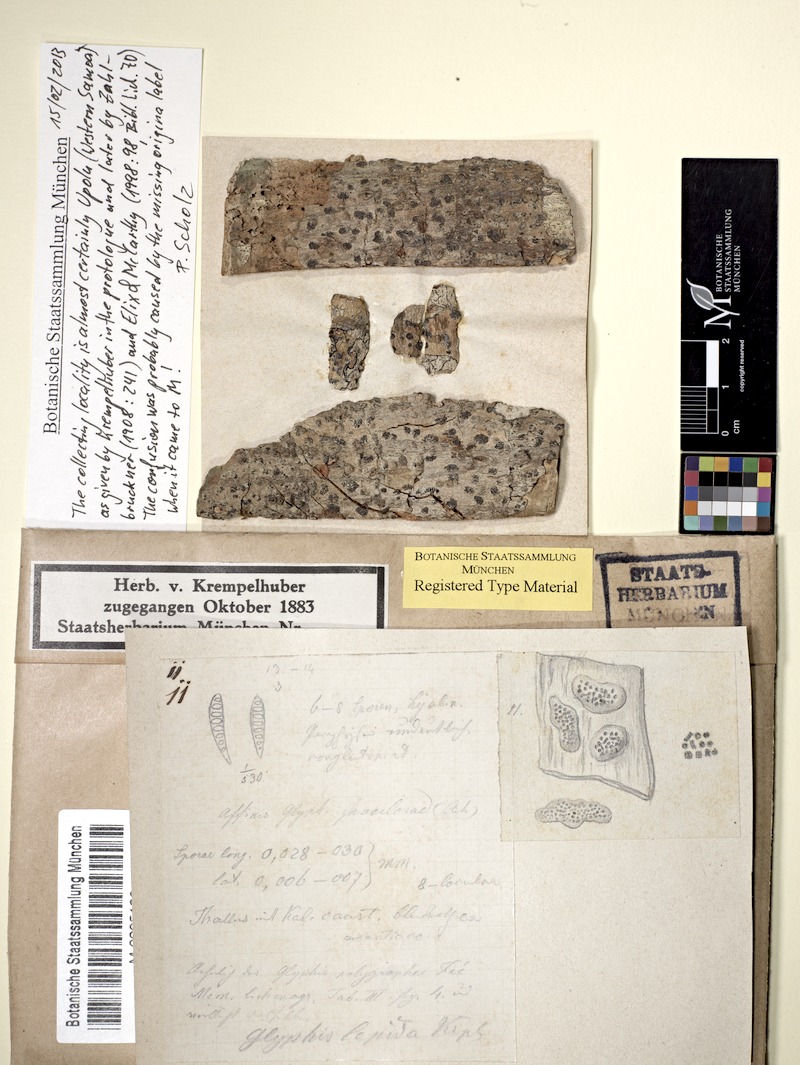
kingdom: Fungi
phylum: Ascomycota
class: Lecanoromycetes
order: Ostropales
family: Graphidaceae
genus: Glyphis
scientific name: Glyphis cicatricosa
